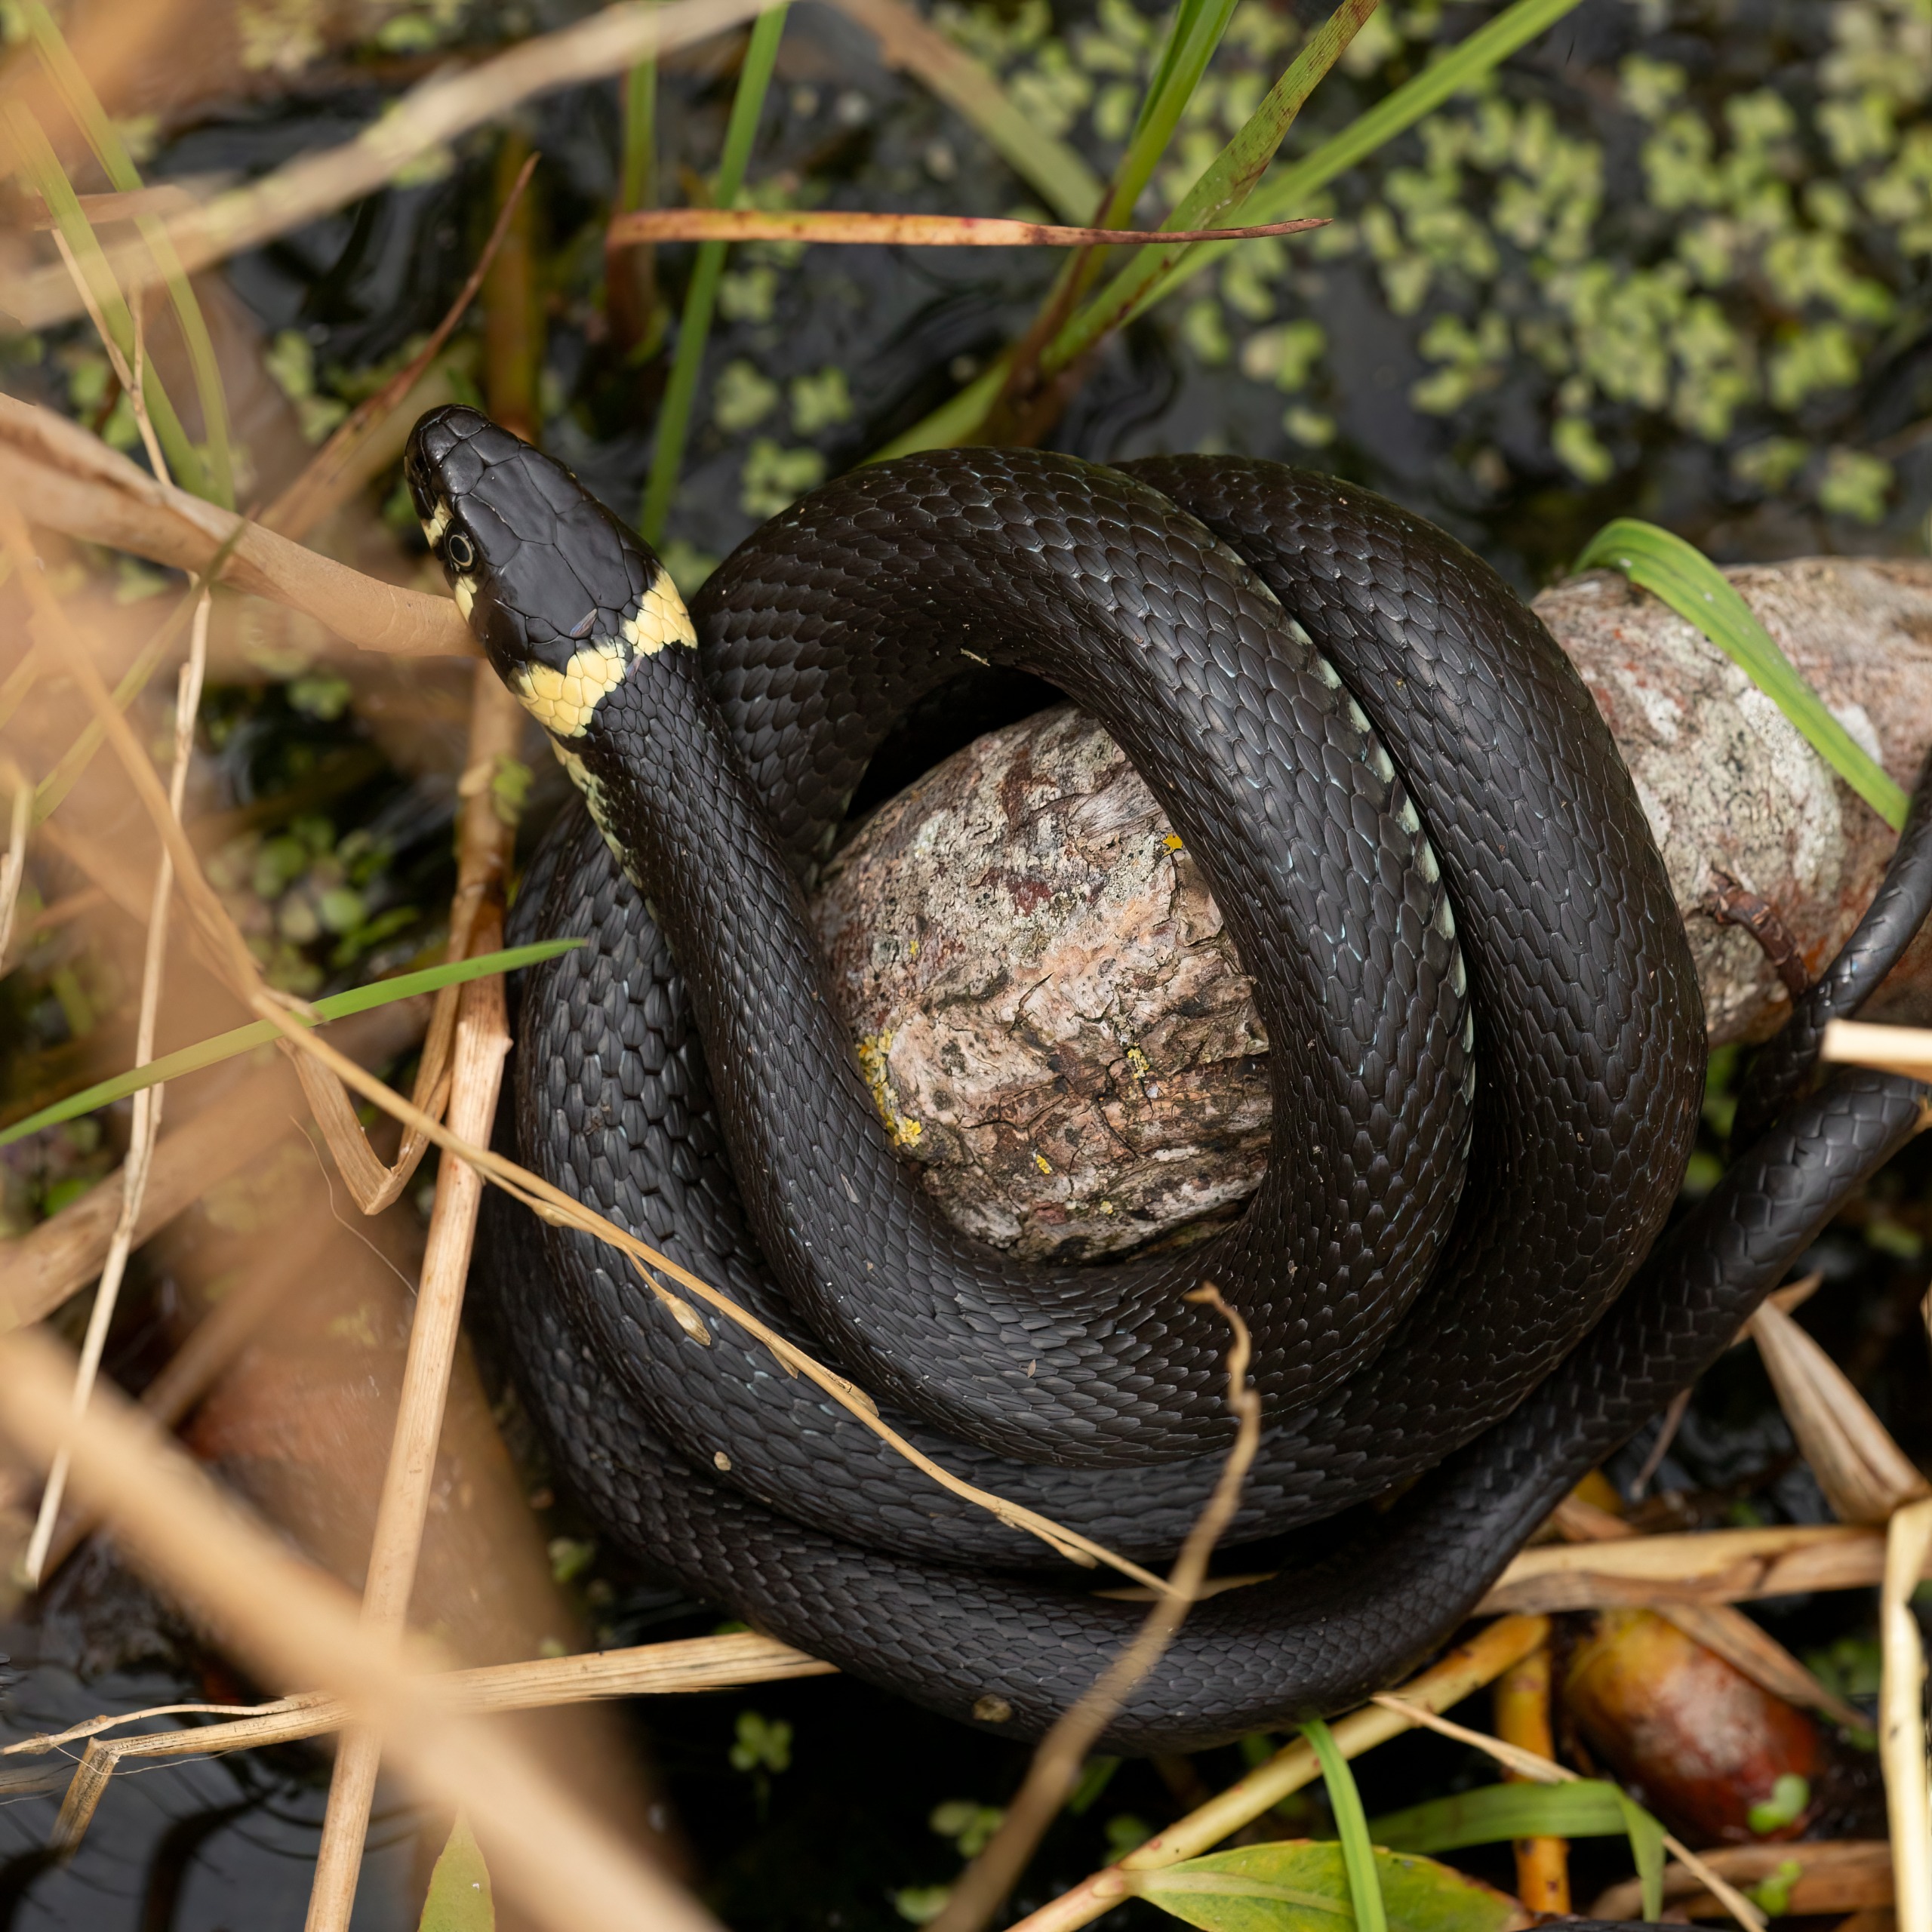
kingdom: Animalia
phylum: Chordata
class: Squamata
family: Colubridae
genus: Natrix
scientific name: Natrix natrix
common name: Snog
